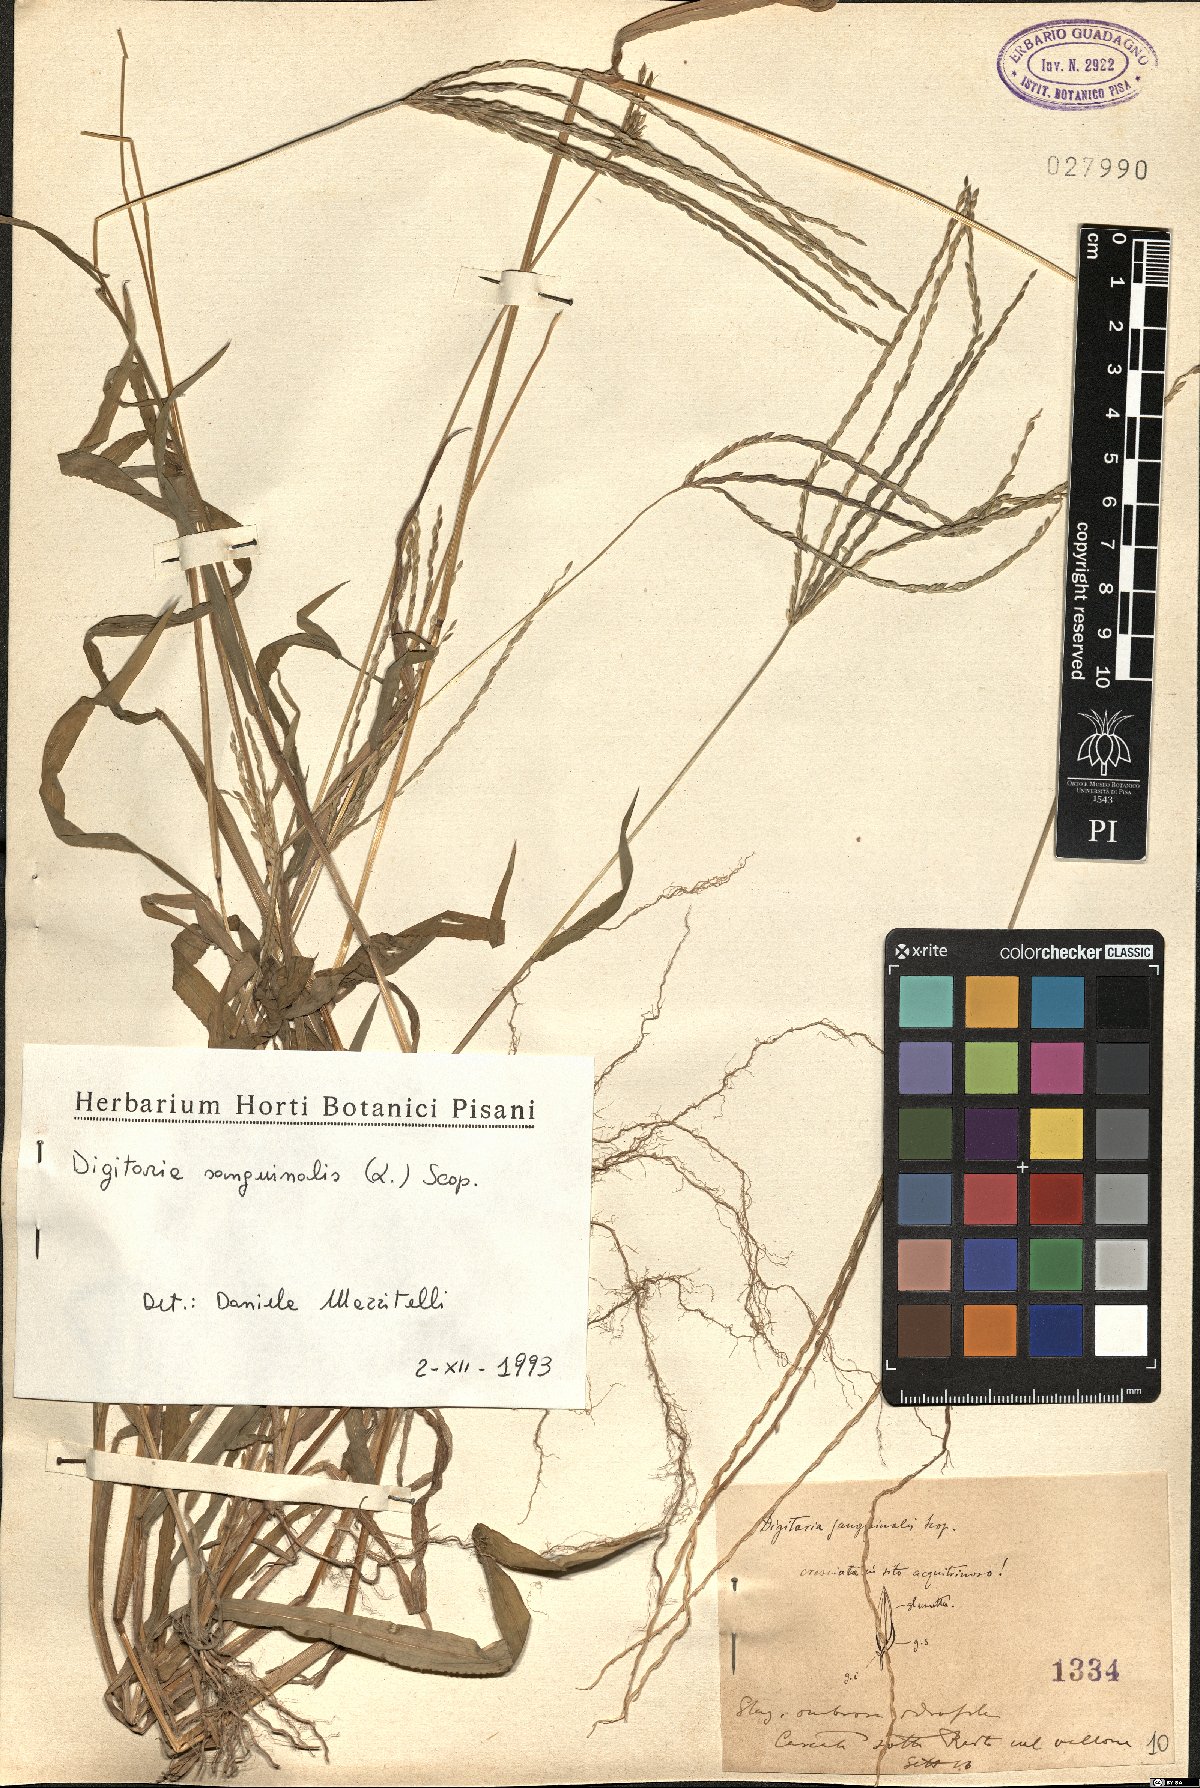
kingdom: Plantae
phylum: Tracheophyta
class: Liliopsida
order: Poales
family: Poaceae
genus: Digitaria
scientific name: Digitaria sanguinalis
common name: Hairy crabgrass
